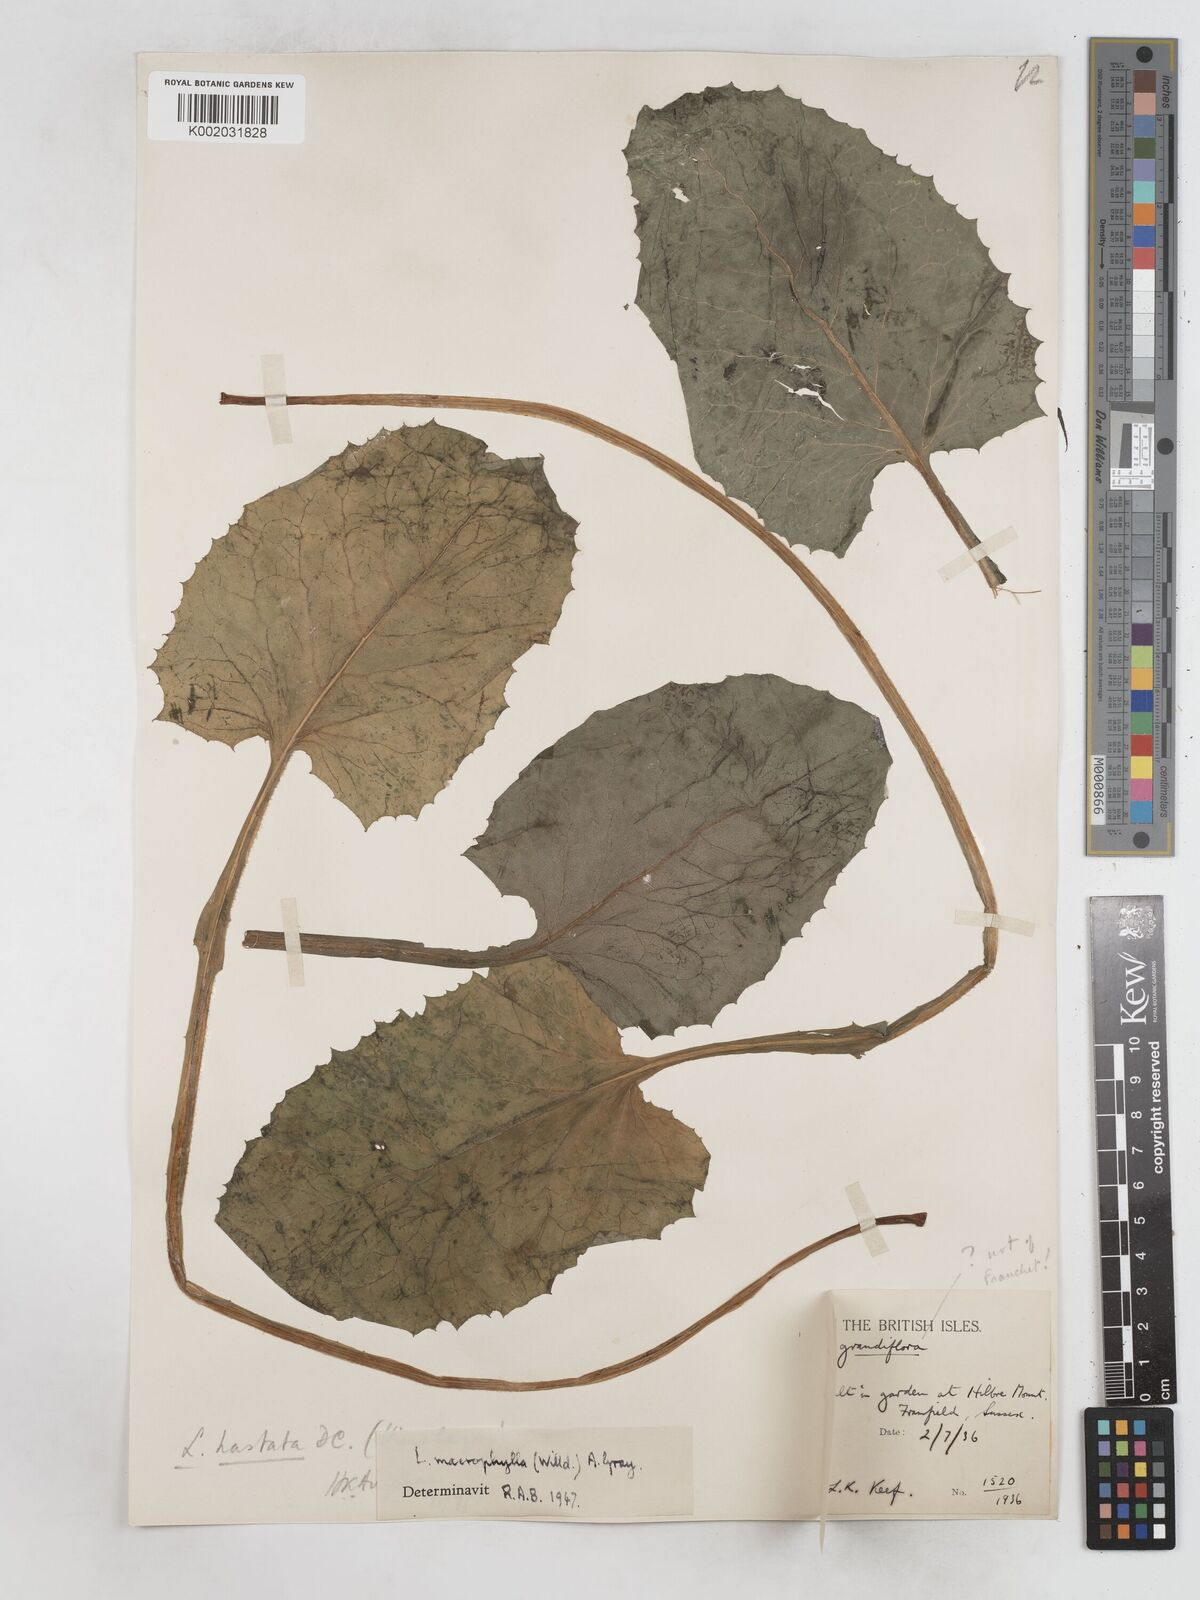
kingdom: Plantae
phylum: Tracheophyta
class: Magnoliopsida
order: Asterales
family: Asteraceae
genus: Lactuca
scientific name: Lactuca macrophylla
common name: Common blue-sow-thistle
